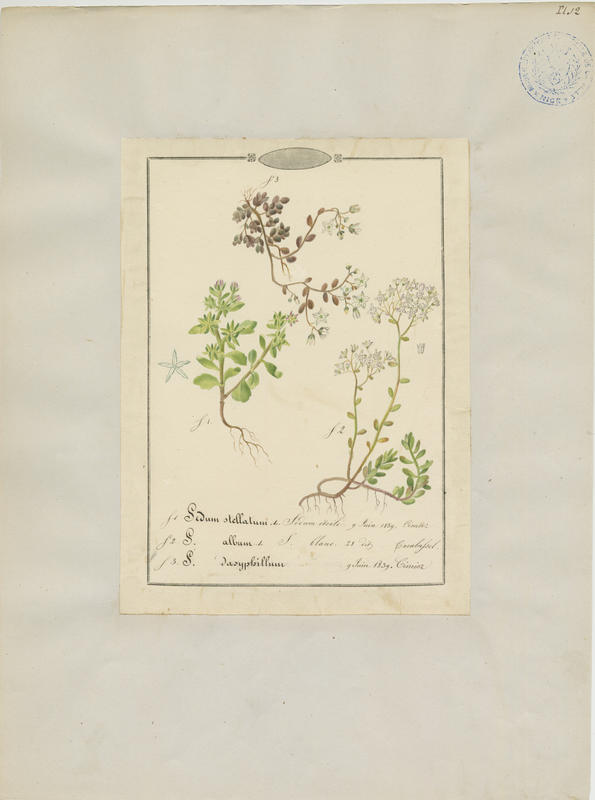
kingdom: Plantae
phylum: Tracheophyta
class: Magnoliopsida
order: Saxifragales
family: Crassulaceae
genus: Sedum
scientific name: Sedum dasyphyllum
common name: Thick-leaf stonecrop
